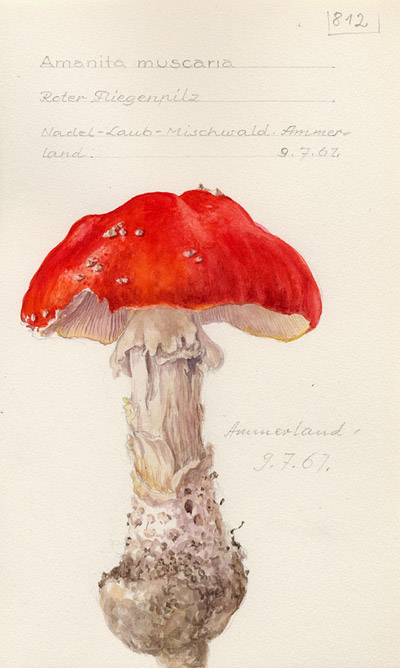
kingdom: Fungi
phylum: Basidiomycota
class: Agaricomycetes
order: Agaricales
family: Amanitaceae
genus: Amanita
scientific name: Amanita muscaria
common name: Fly agaric
